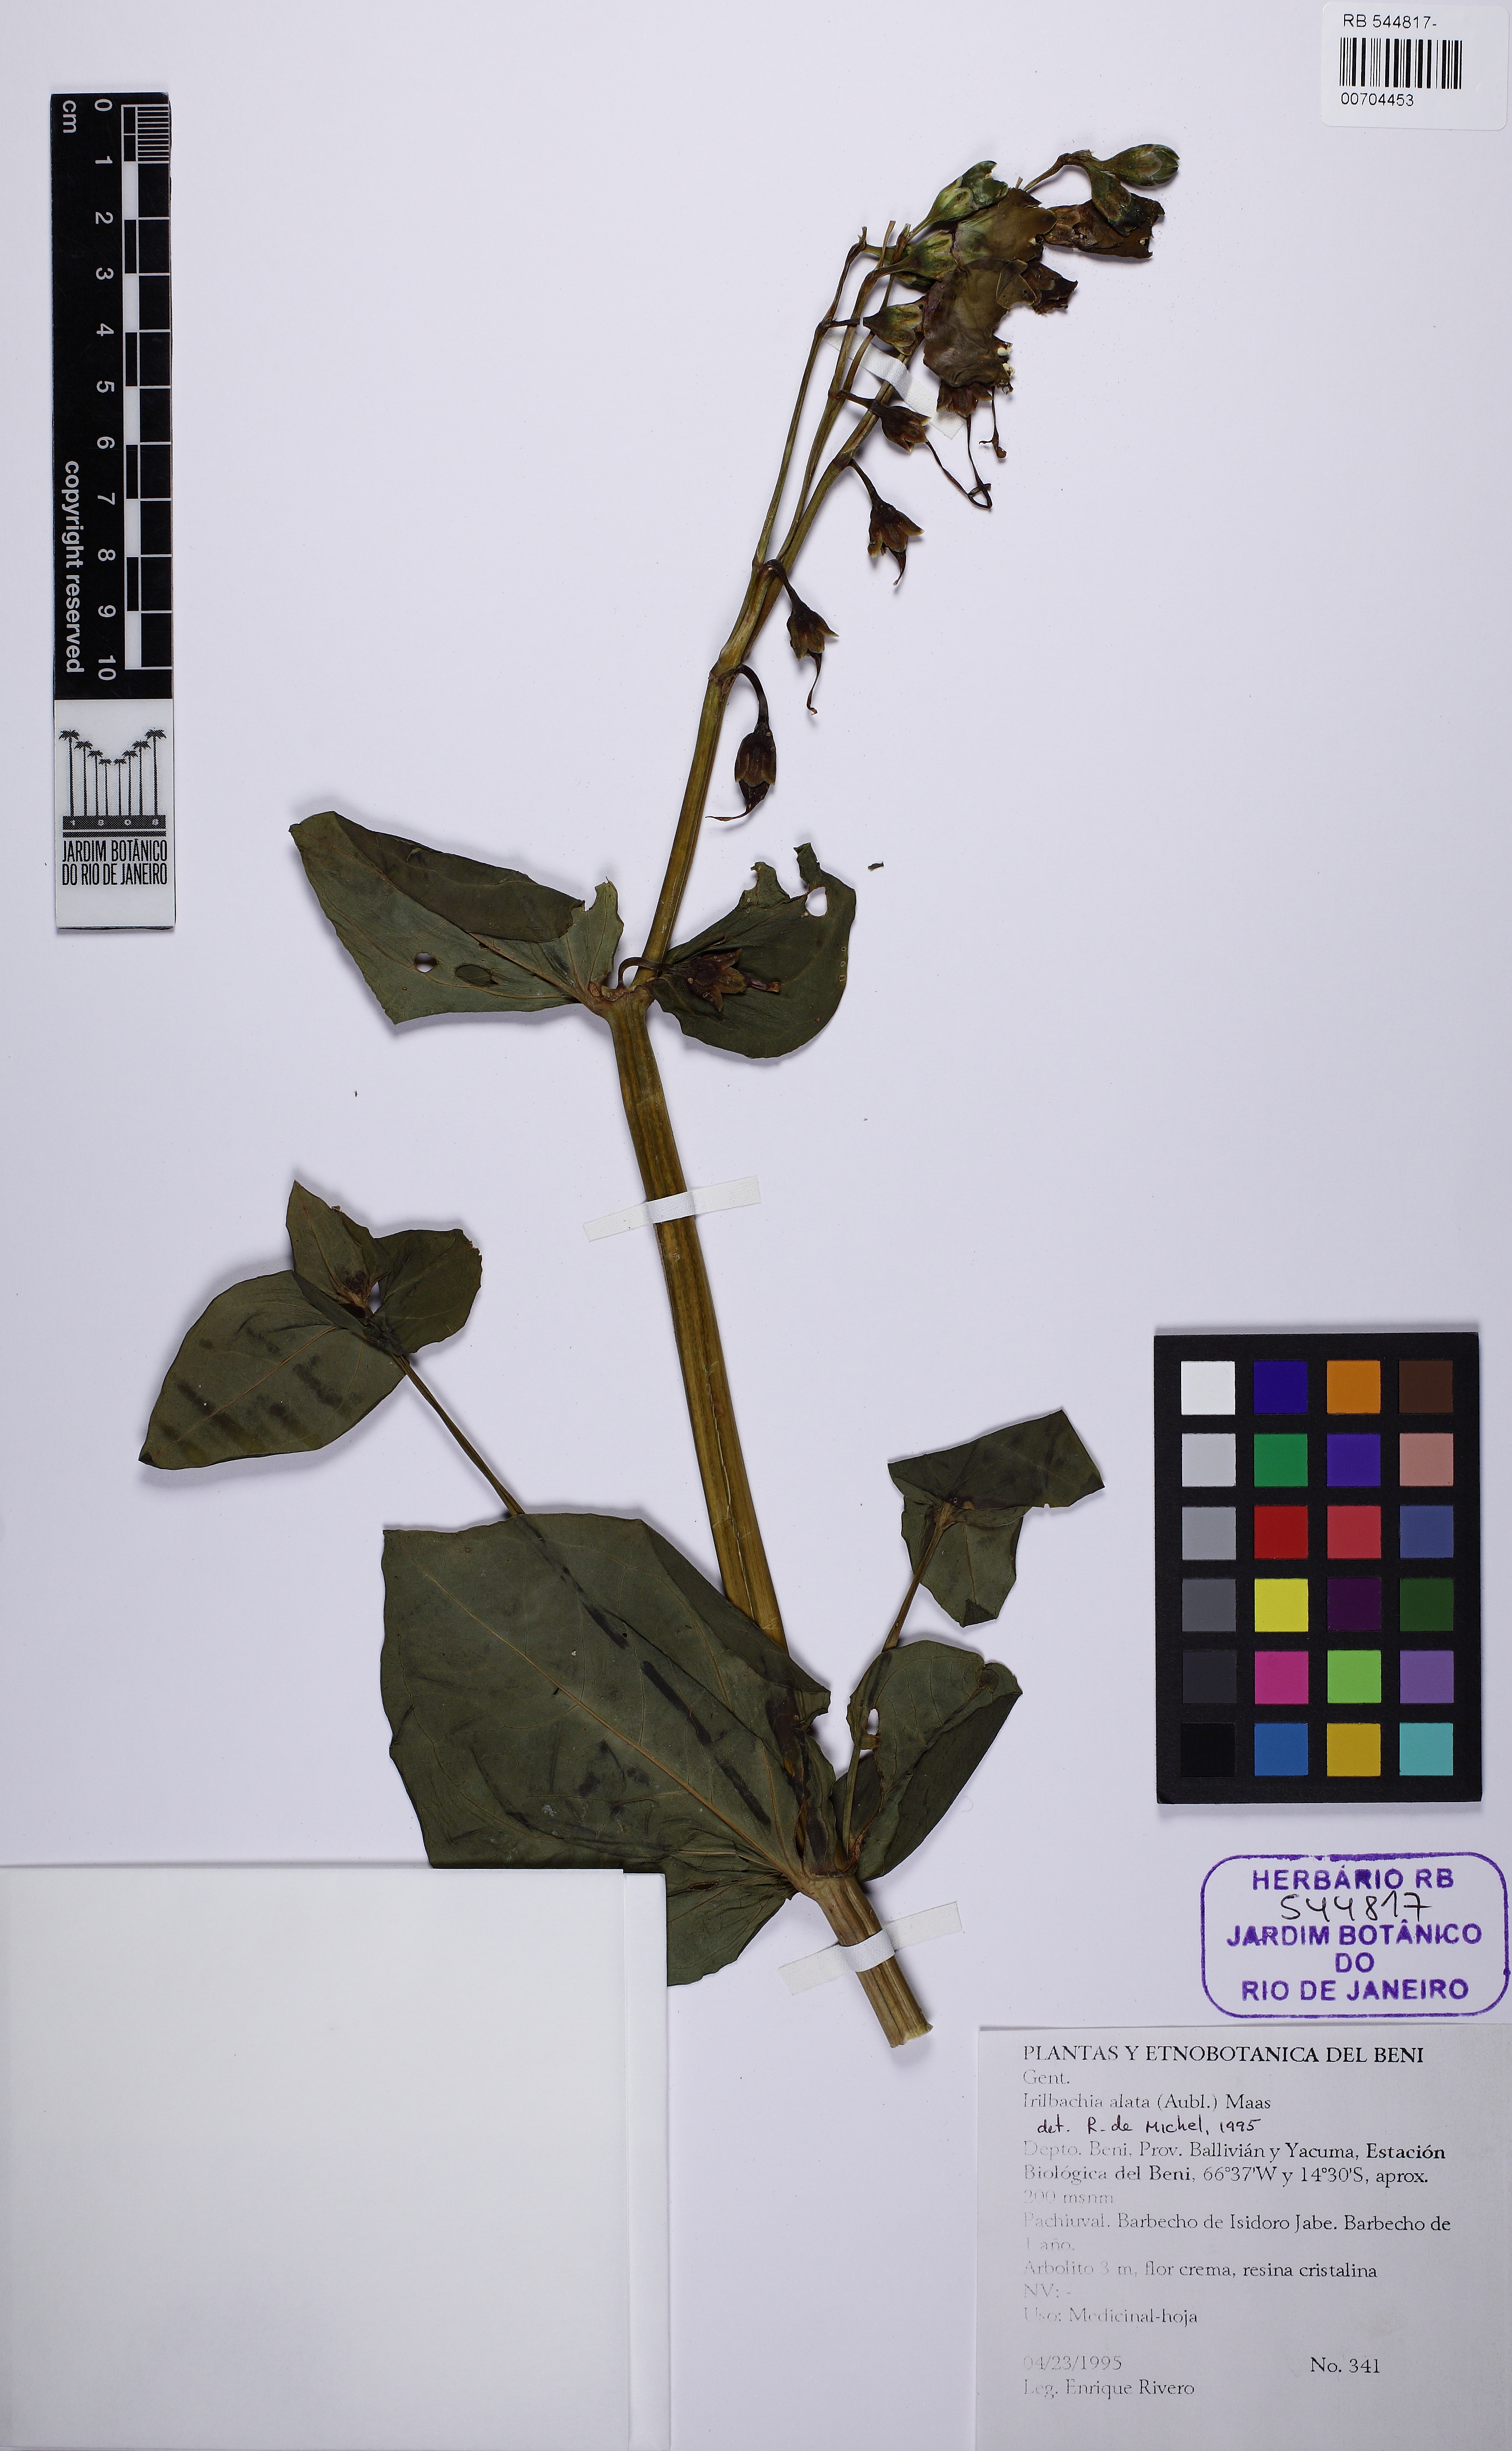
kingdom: Plantae
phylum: Tracheophyta
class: Magnoliopsida
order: Gentianales
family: Gentianaceae
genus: Chelonanthus
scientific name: Chelonanthus alatus
